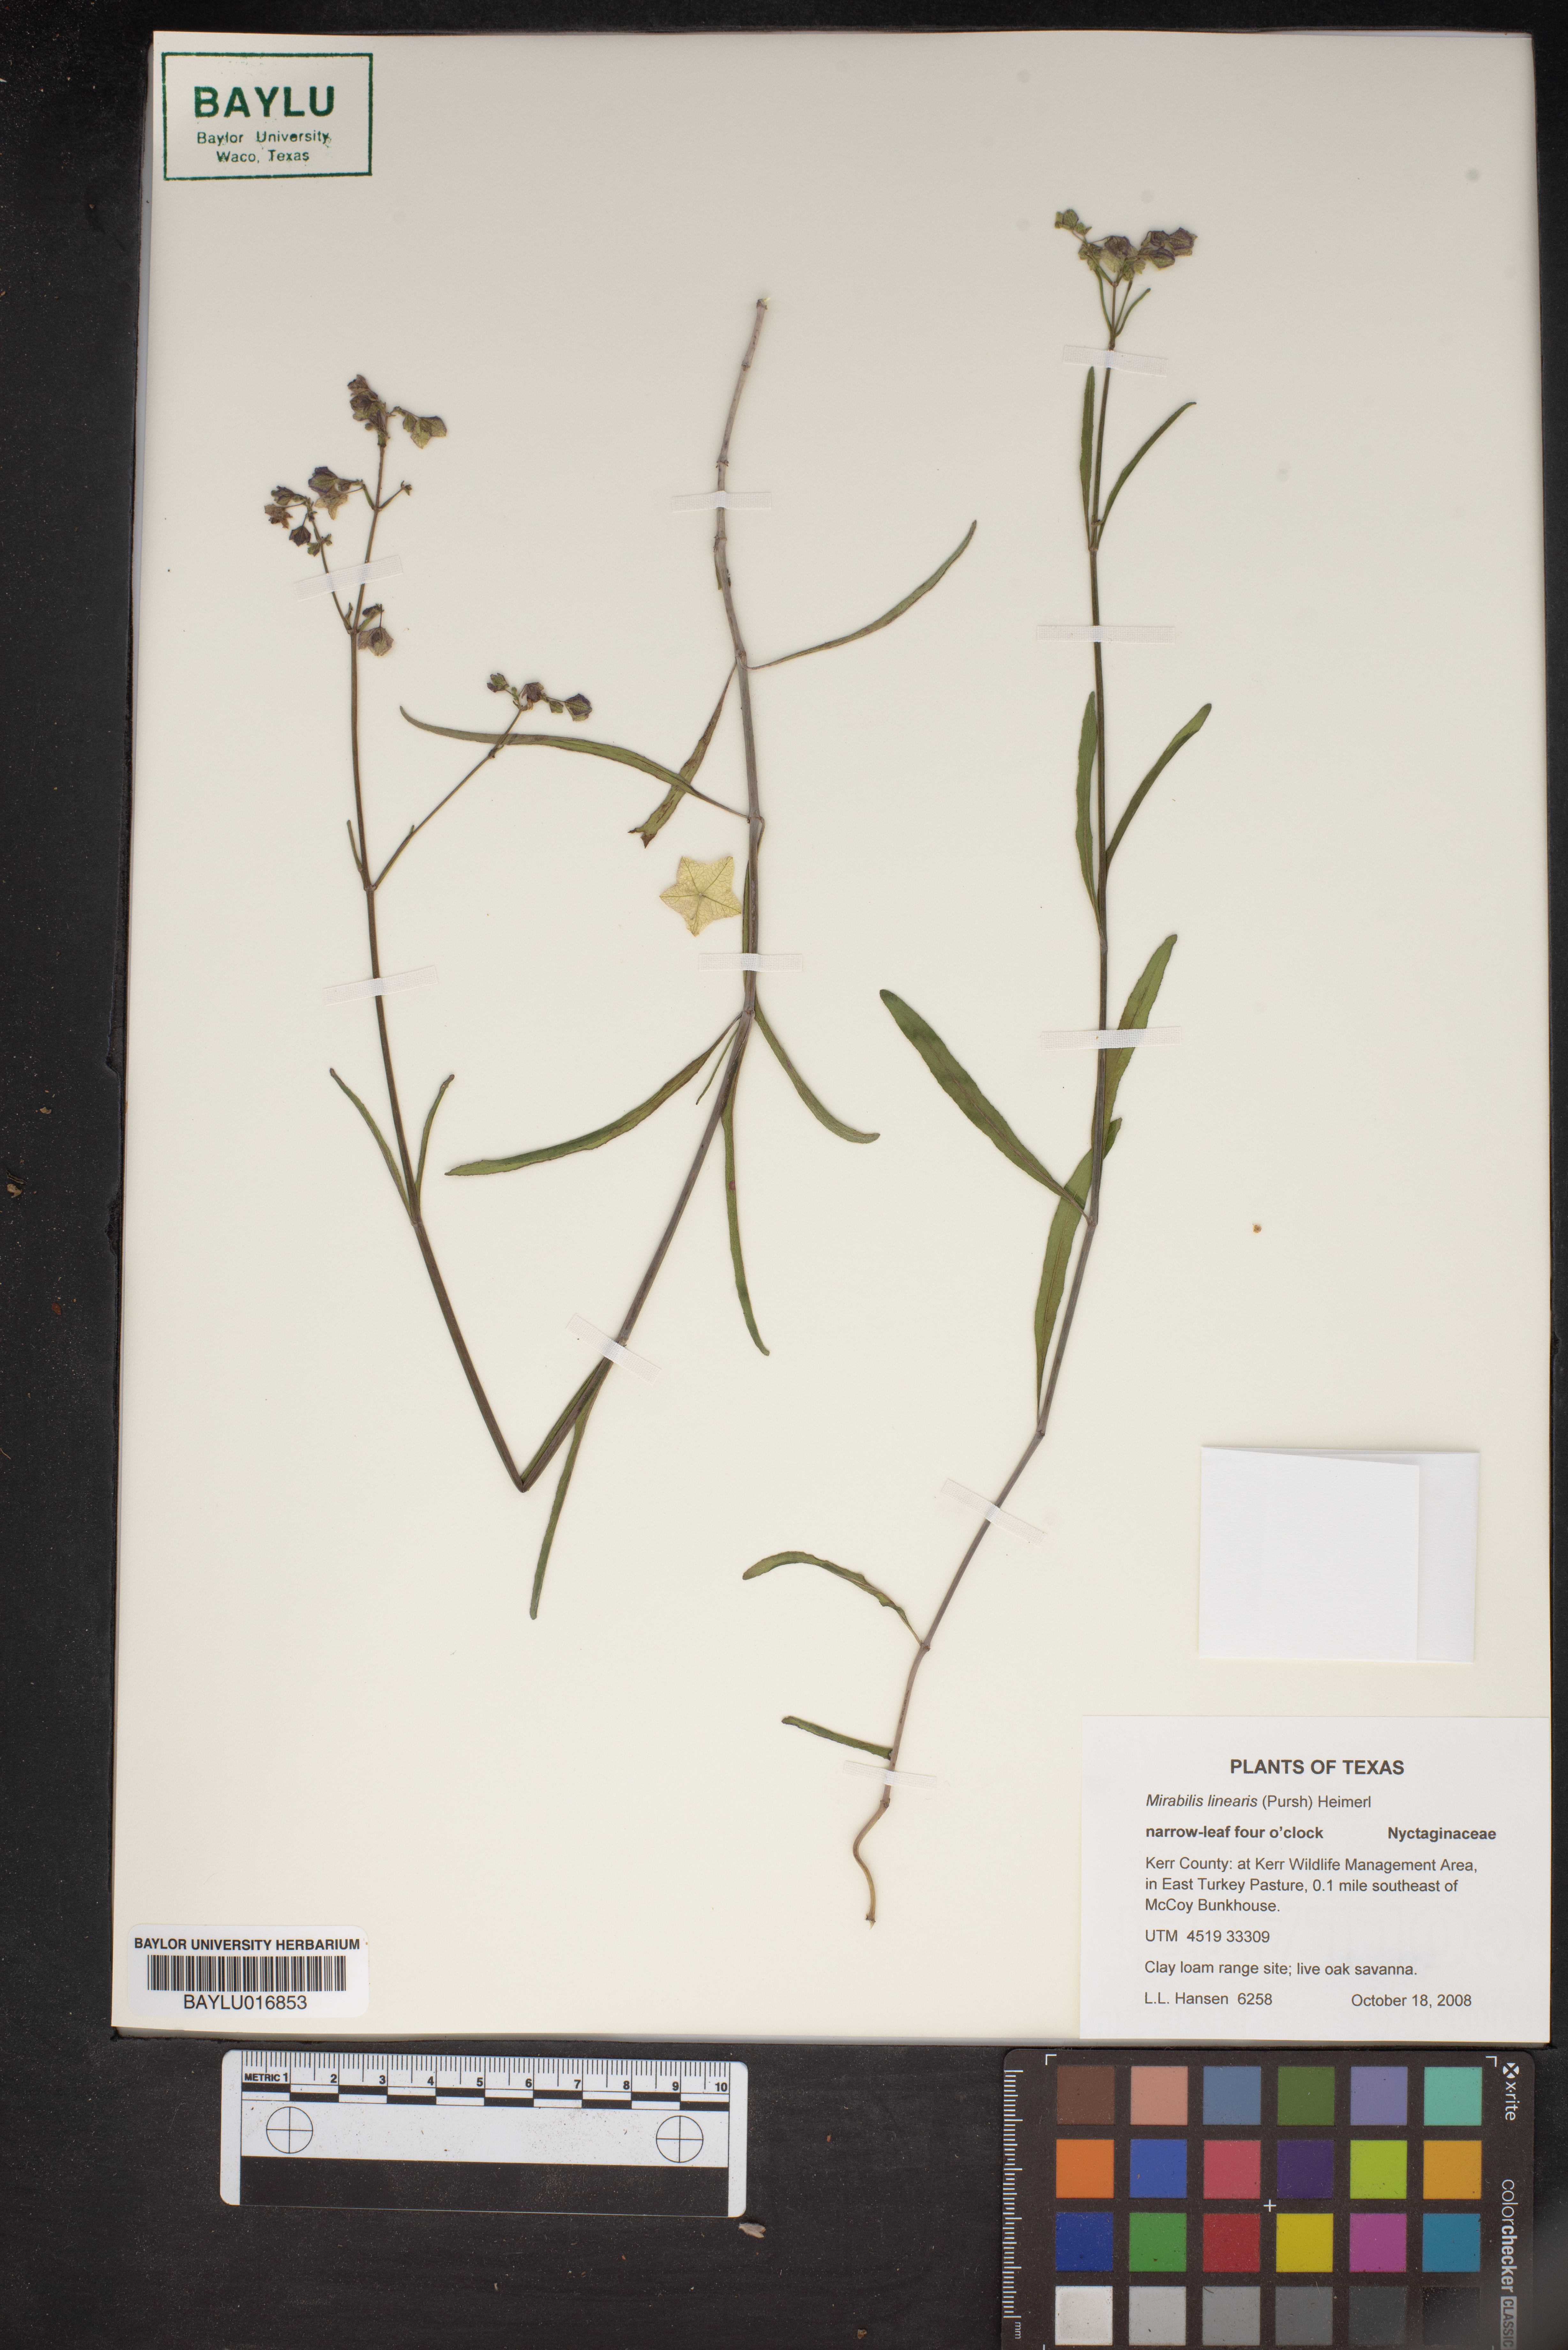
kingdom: Plantae
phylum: Tracheophyta
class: Magnoliopsida
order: Caryophyllales
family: Nyctaginaceae
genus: Mirabilis
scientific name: Mirabilis linearis
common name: Linear-leaved four-o'clock
